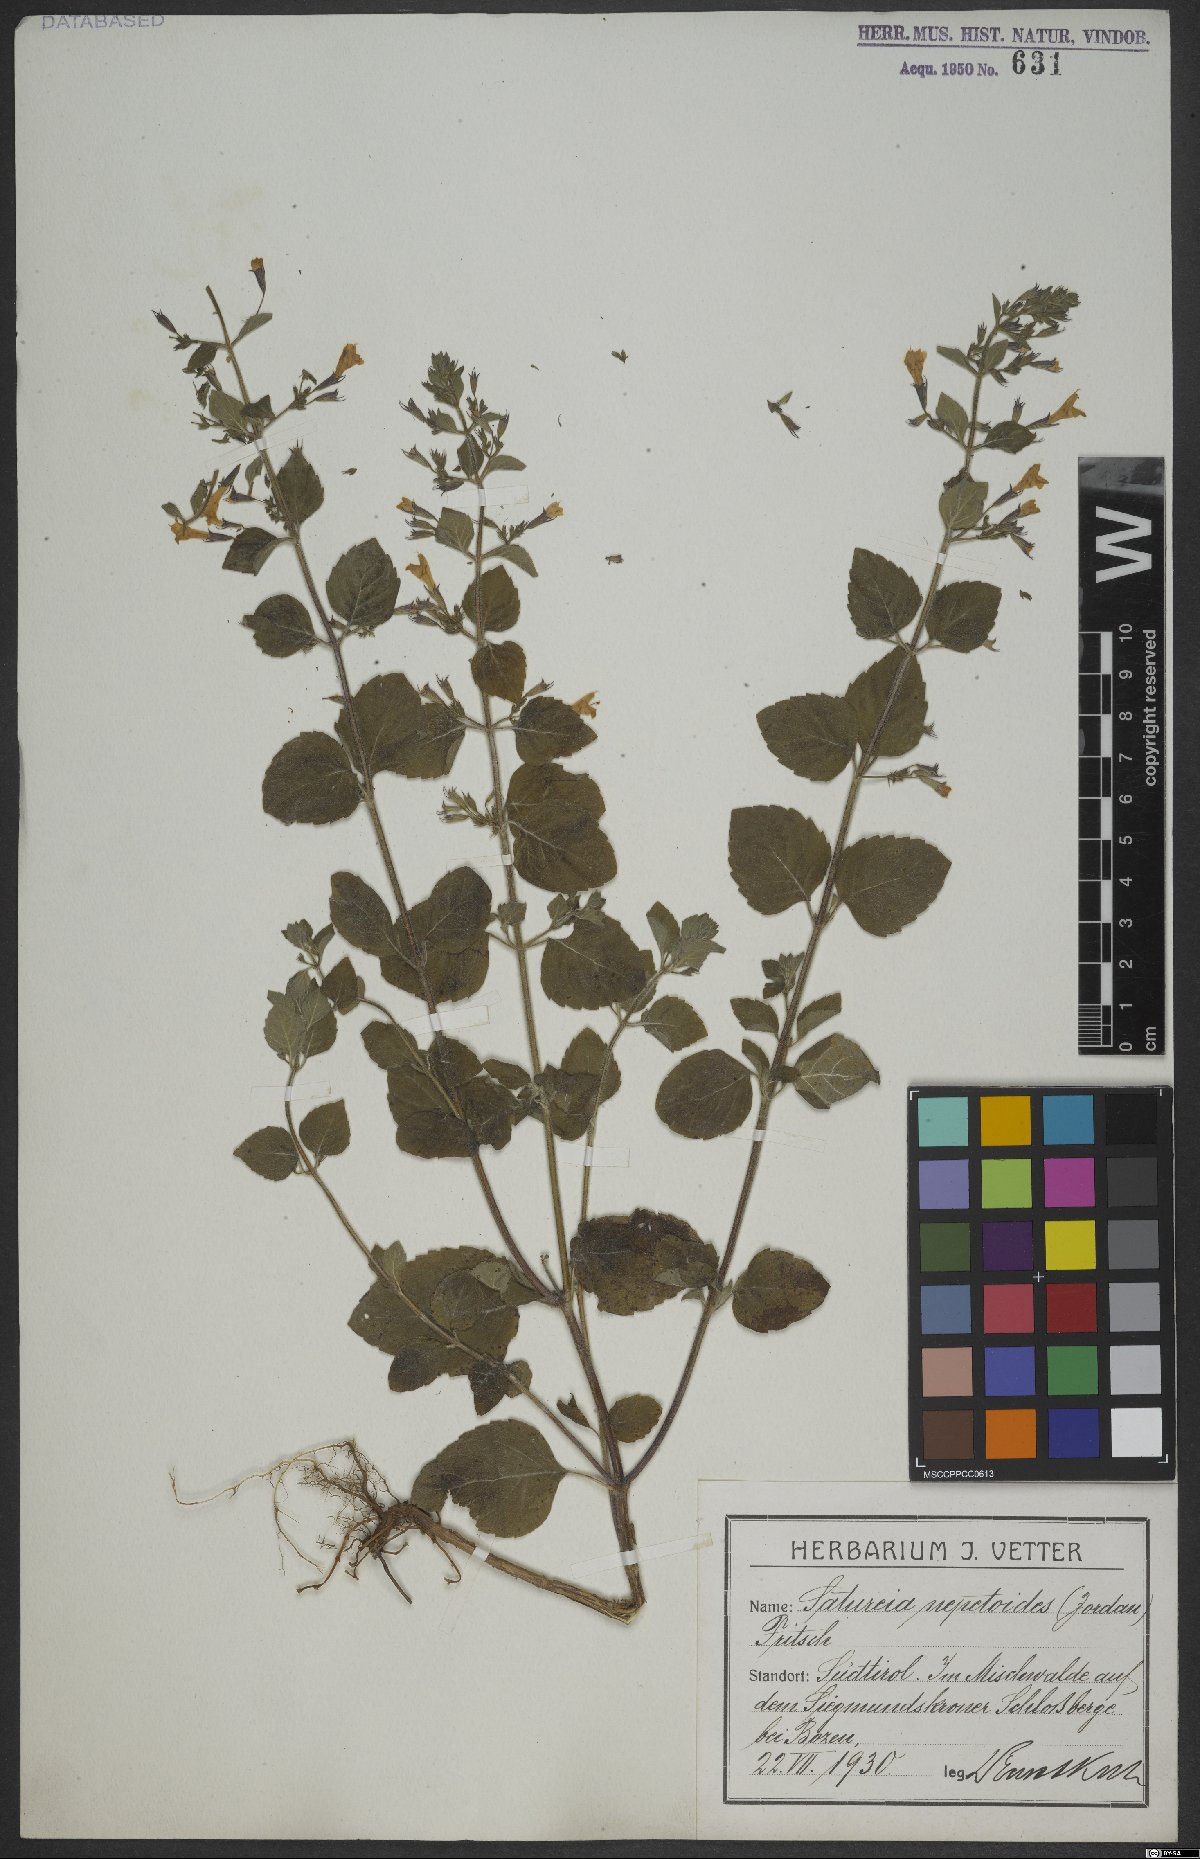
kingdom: Plantae
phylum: Tracheophyta
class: Magnoliopsida
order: Lamiales
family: Lamiaceae
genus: Clinopodium
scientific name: Clinopodium nepeta
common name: Lesser calamint
